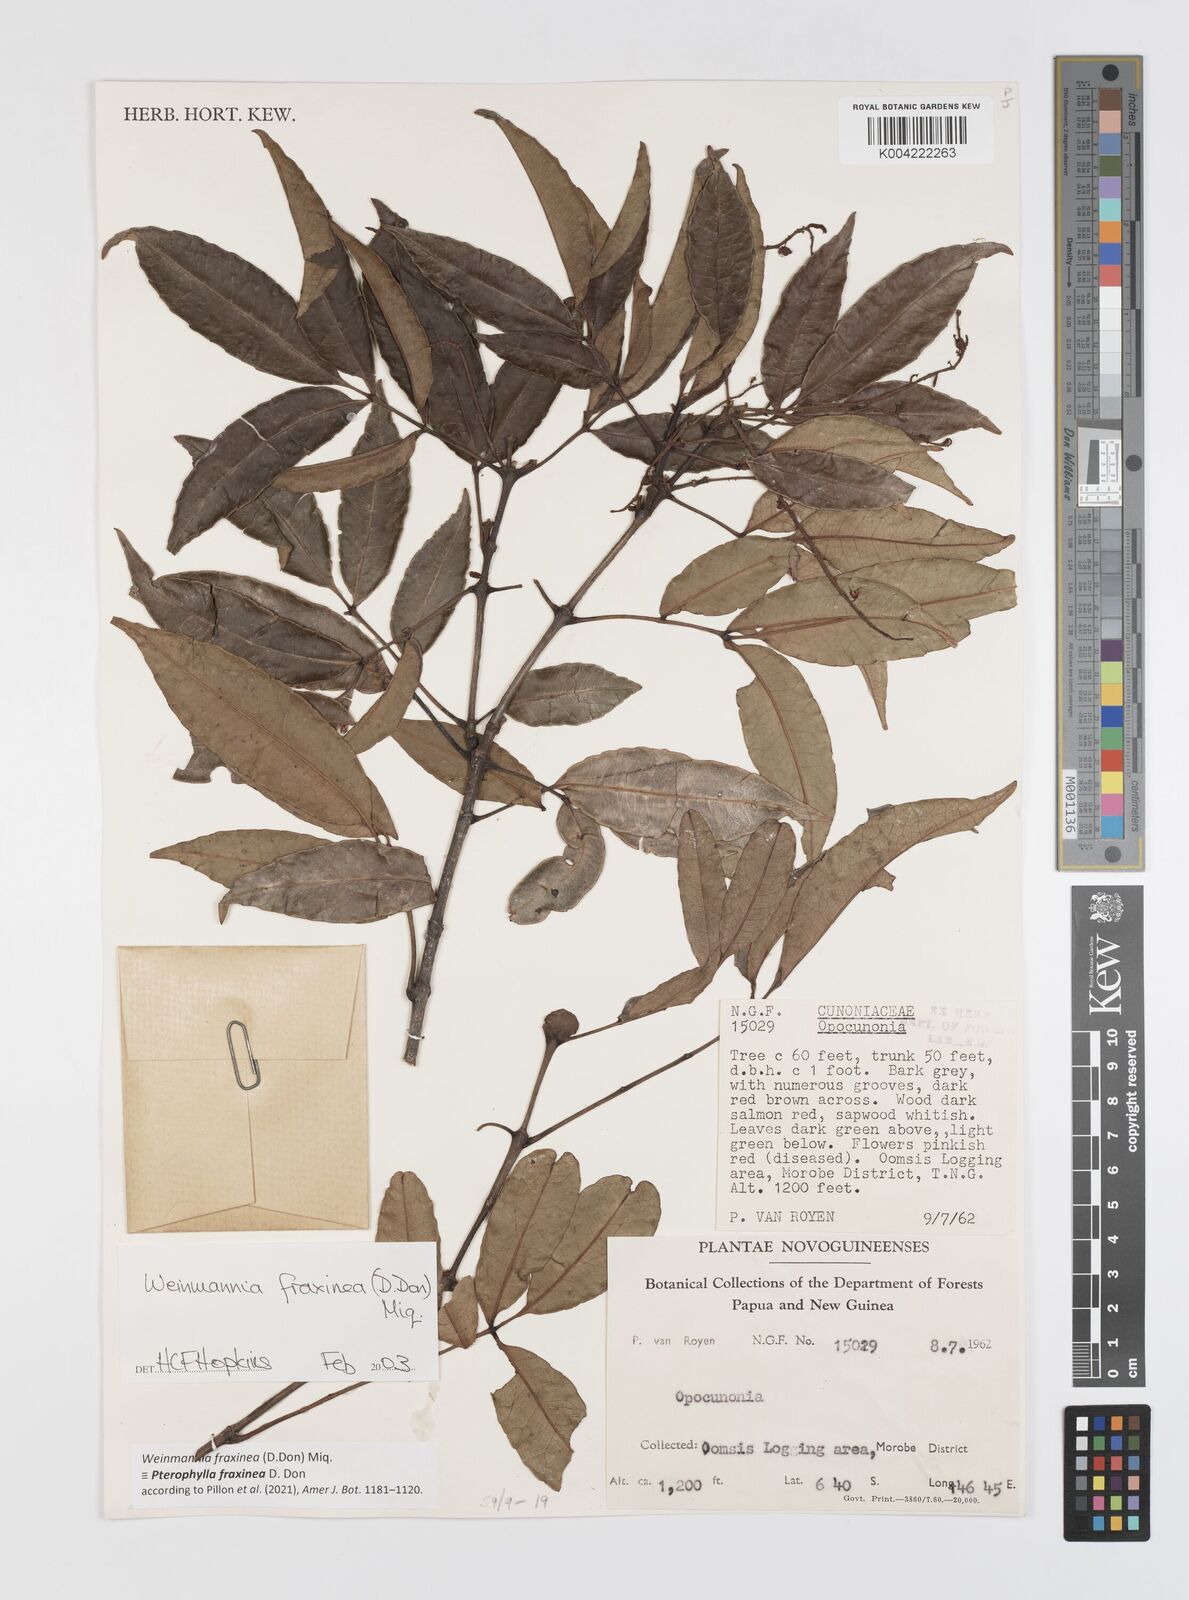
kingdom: Plantae
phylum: Tracheophyta
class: Magnoliopsida
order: Oxalidales
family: Cunoniaceae
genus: Pterophylla
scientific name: Pterophylla fraxinea
